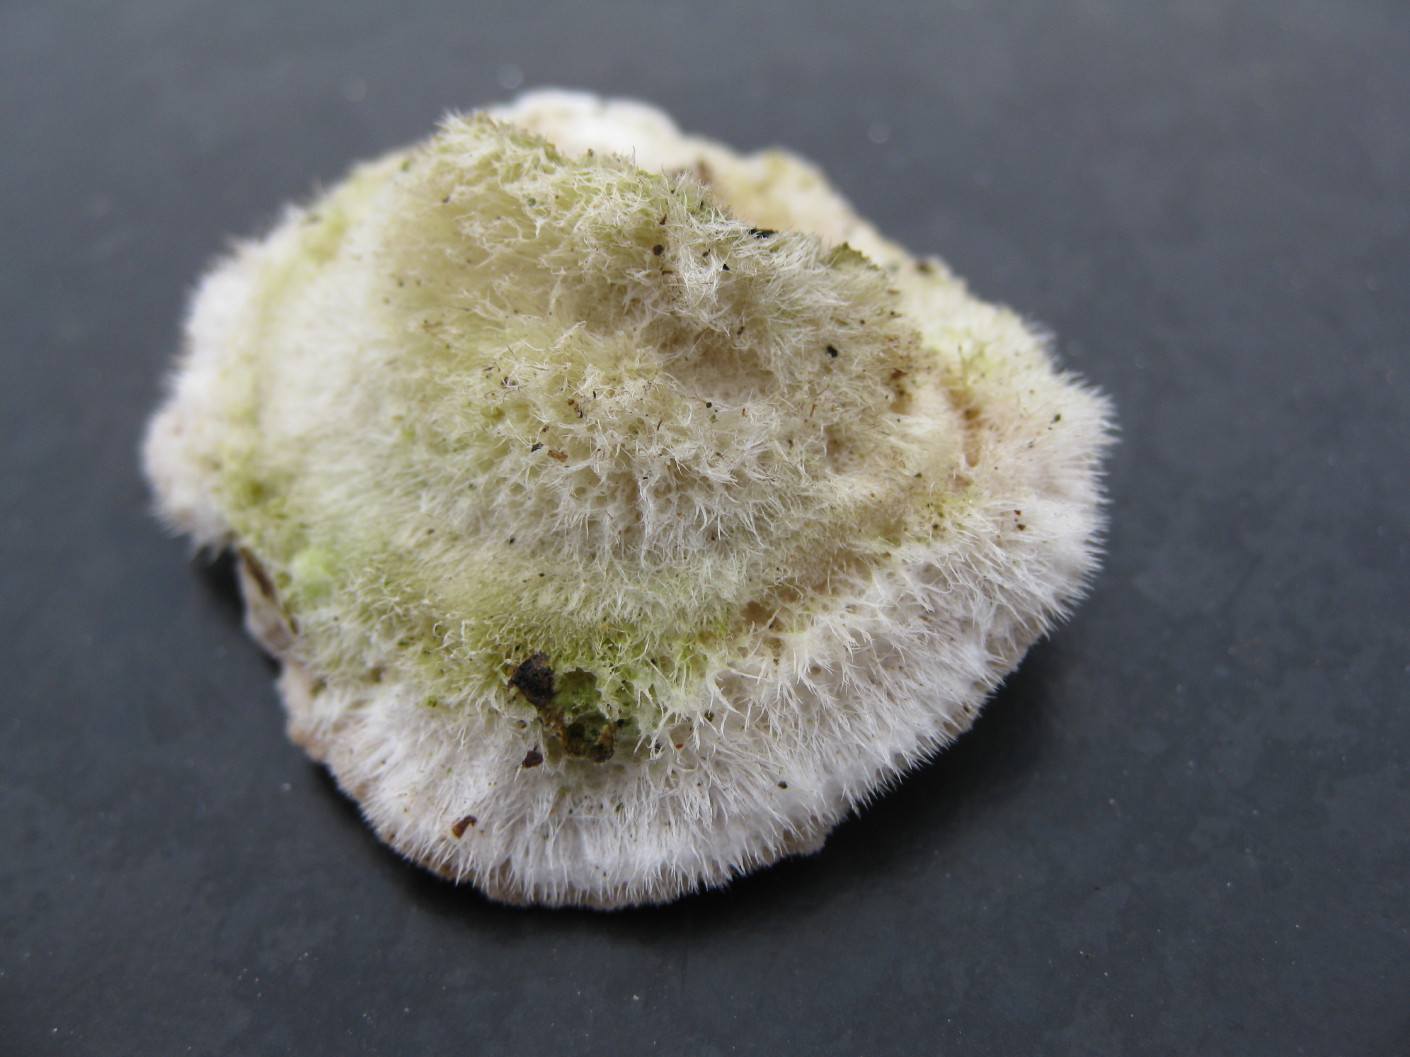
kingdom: Fungi
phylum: Basidiomycota
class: Agaricomycetes
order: Polyporales
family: Polyporaceae
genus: Trametes
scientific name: Trametes hirsuta
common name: håret læderporesvamp
